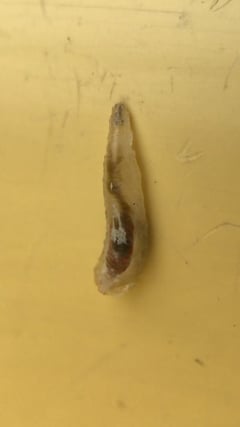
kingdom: Animalia
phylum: Arthropoda
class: Insecta
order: Diptera
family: Syrphidae
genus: Episyrphus
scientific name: Episyrphus balteatus
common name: Marmalade hoverfly
